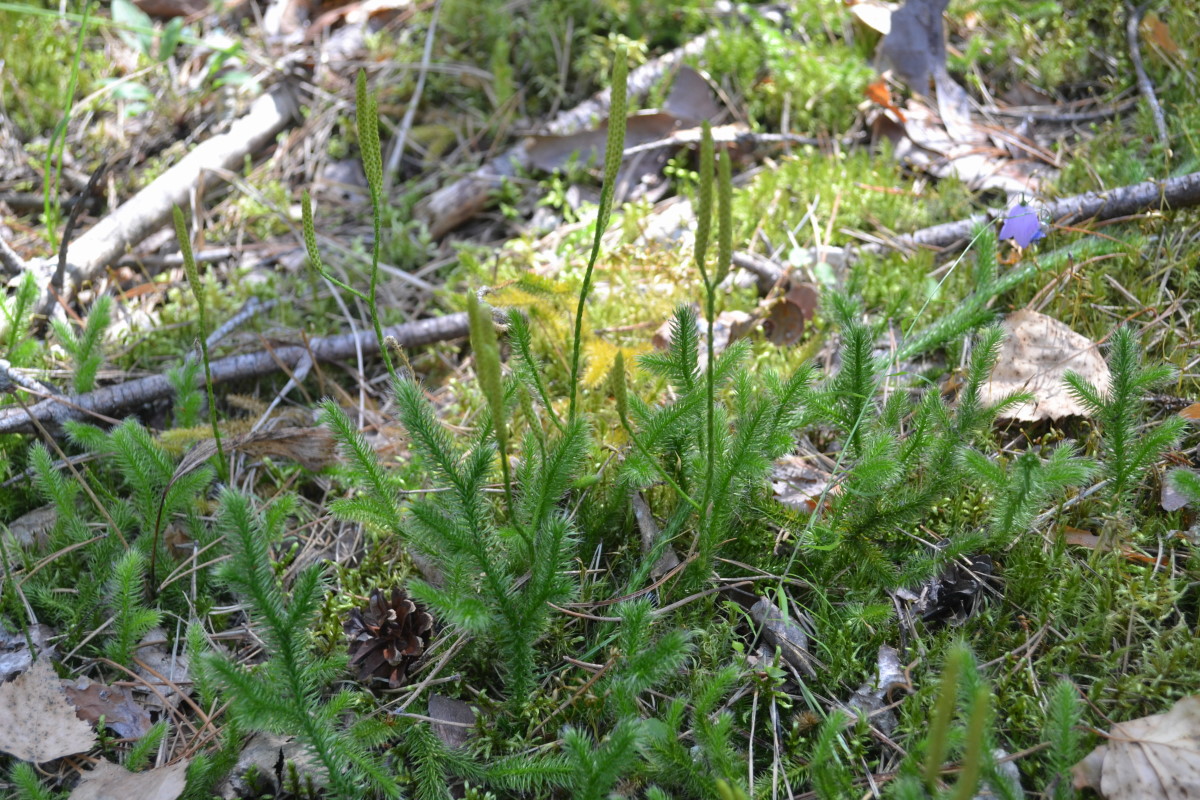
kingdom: Plantae
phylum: Tracheophyta
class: Lycopodiopsida
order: Lycopodiales
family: Lycopodiaceae
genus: Lycopodium
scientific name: Lycopodium clavatum
